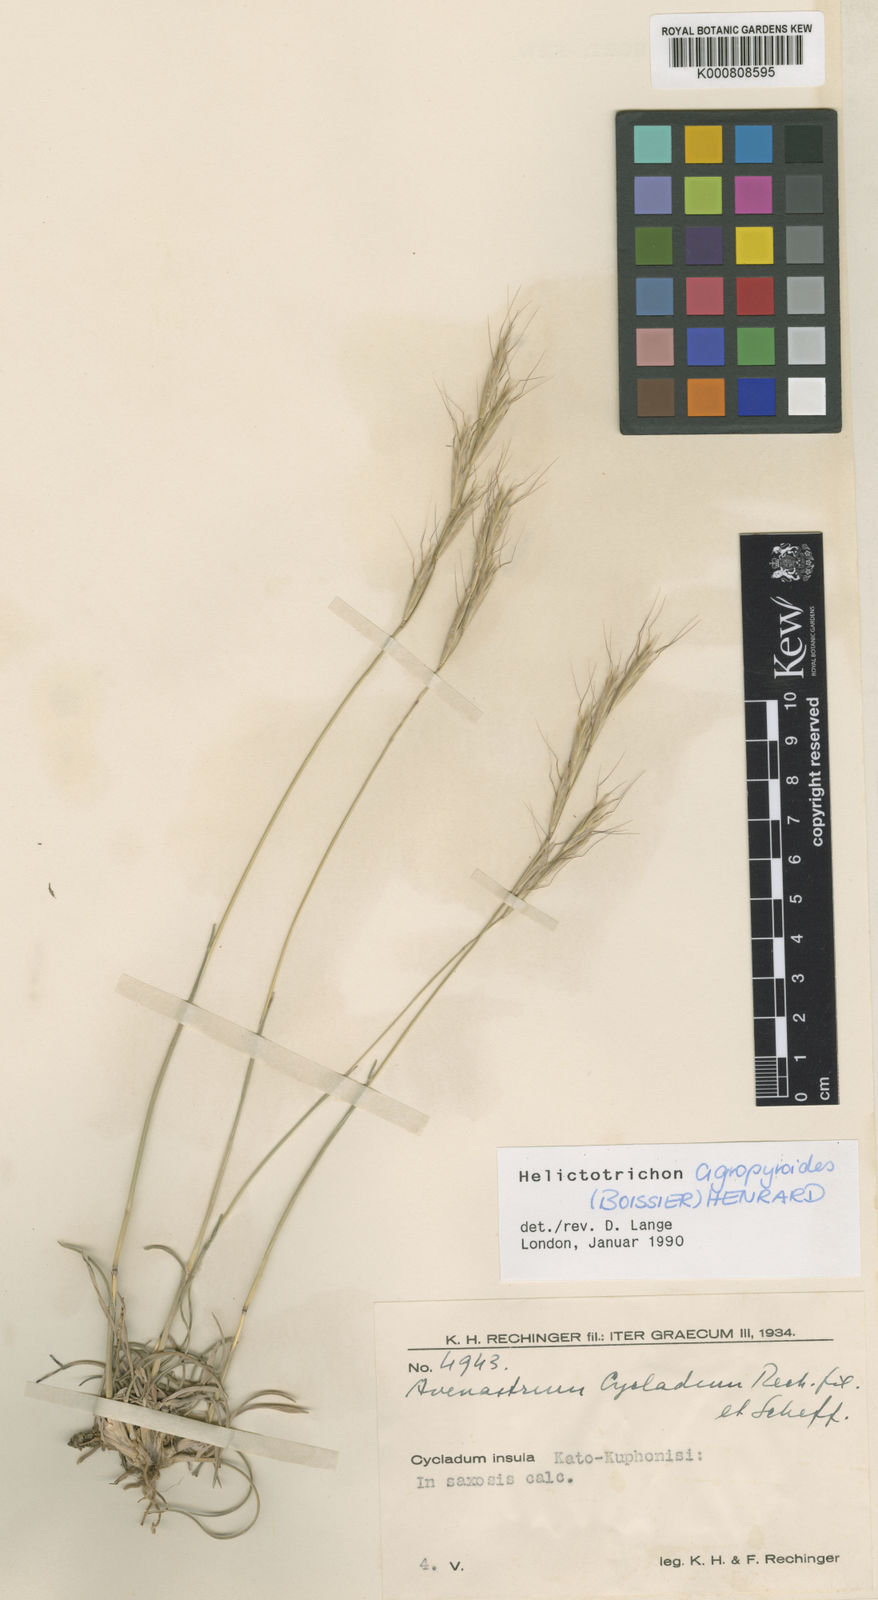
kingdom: Plantae
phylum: Tracheophyta
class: Liliopsida
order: Poales
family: Poaceae
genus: Helictotrichon
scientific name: Helictotrichon cycladum
